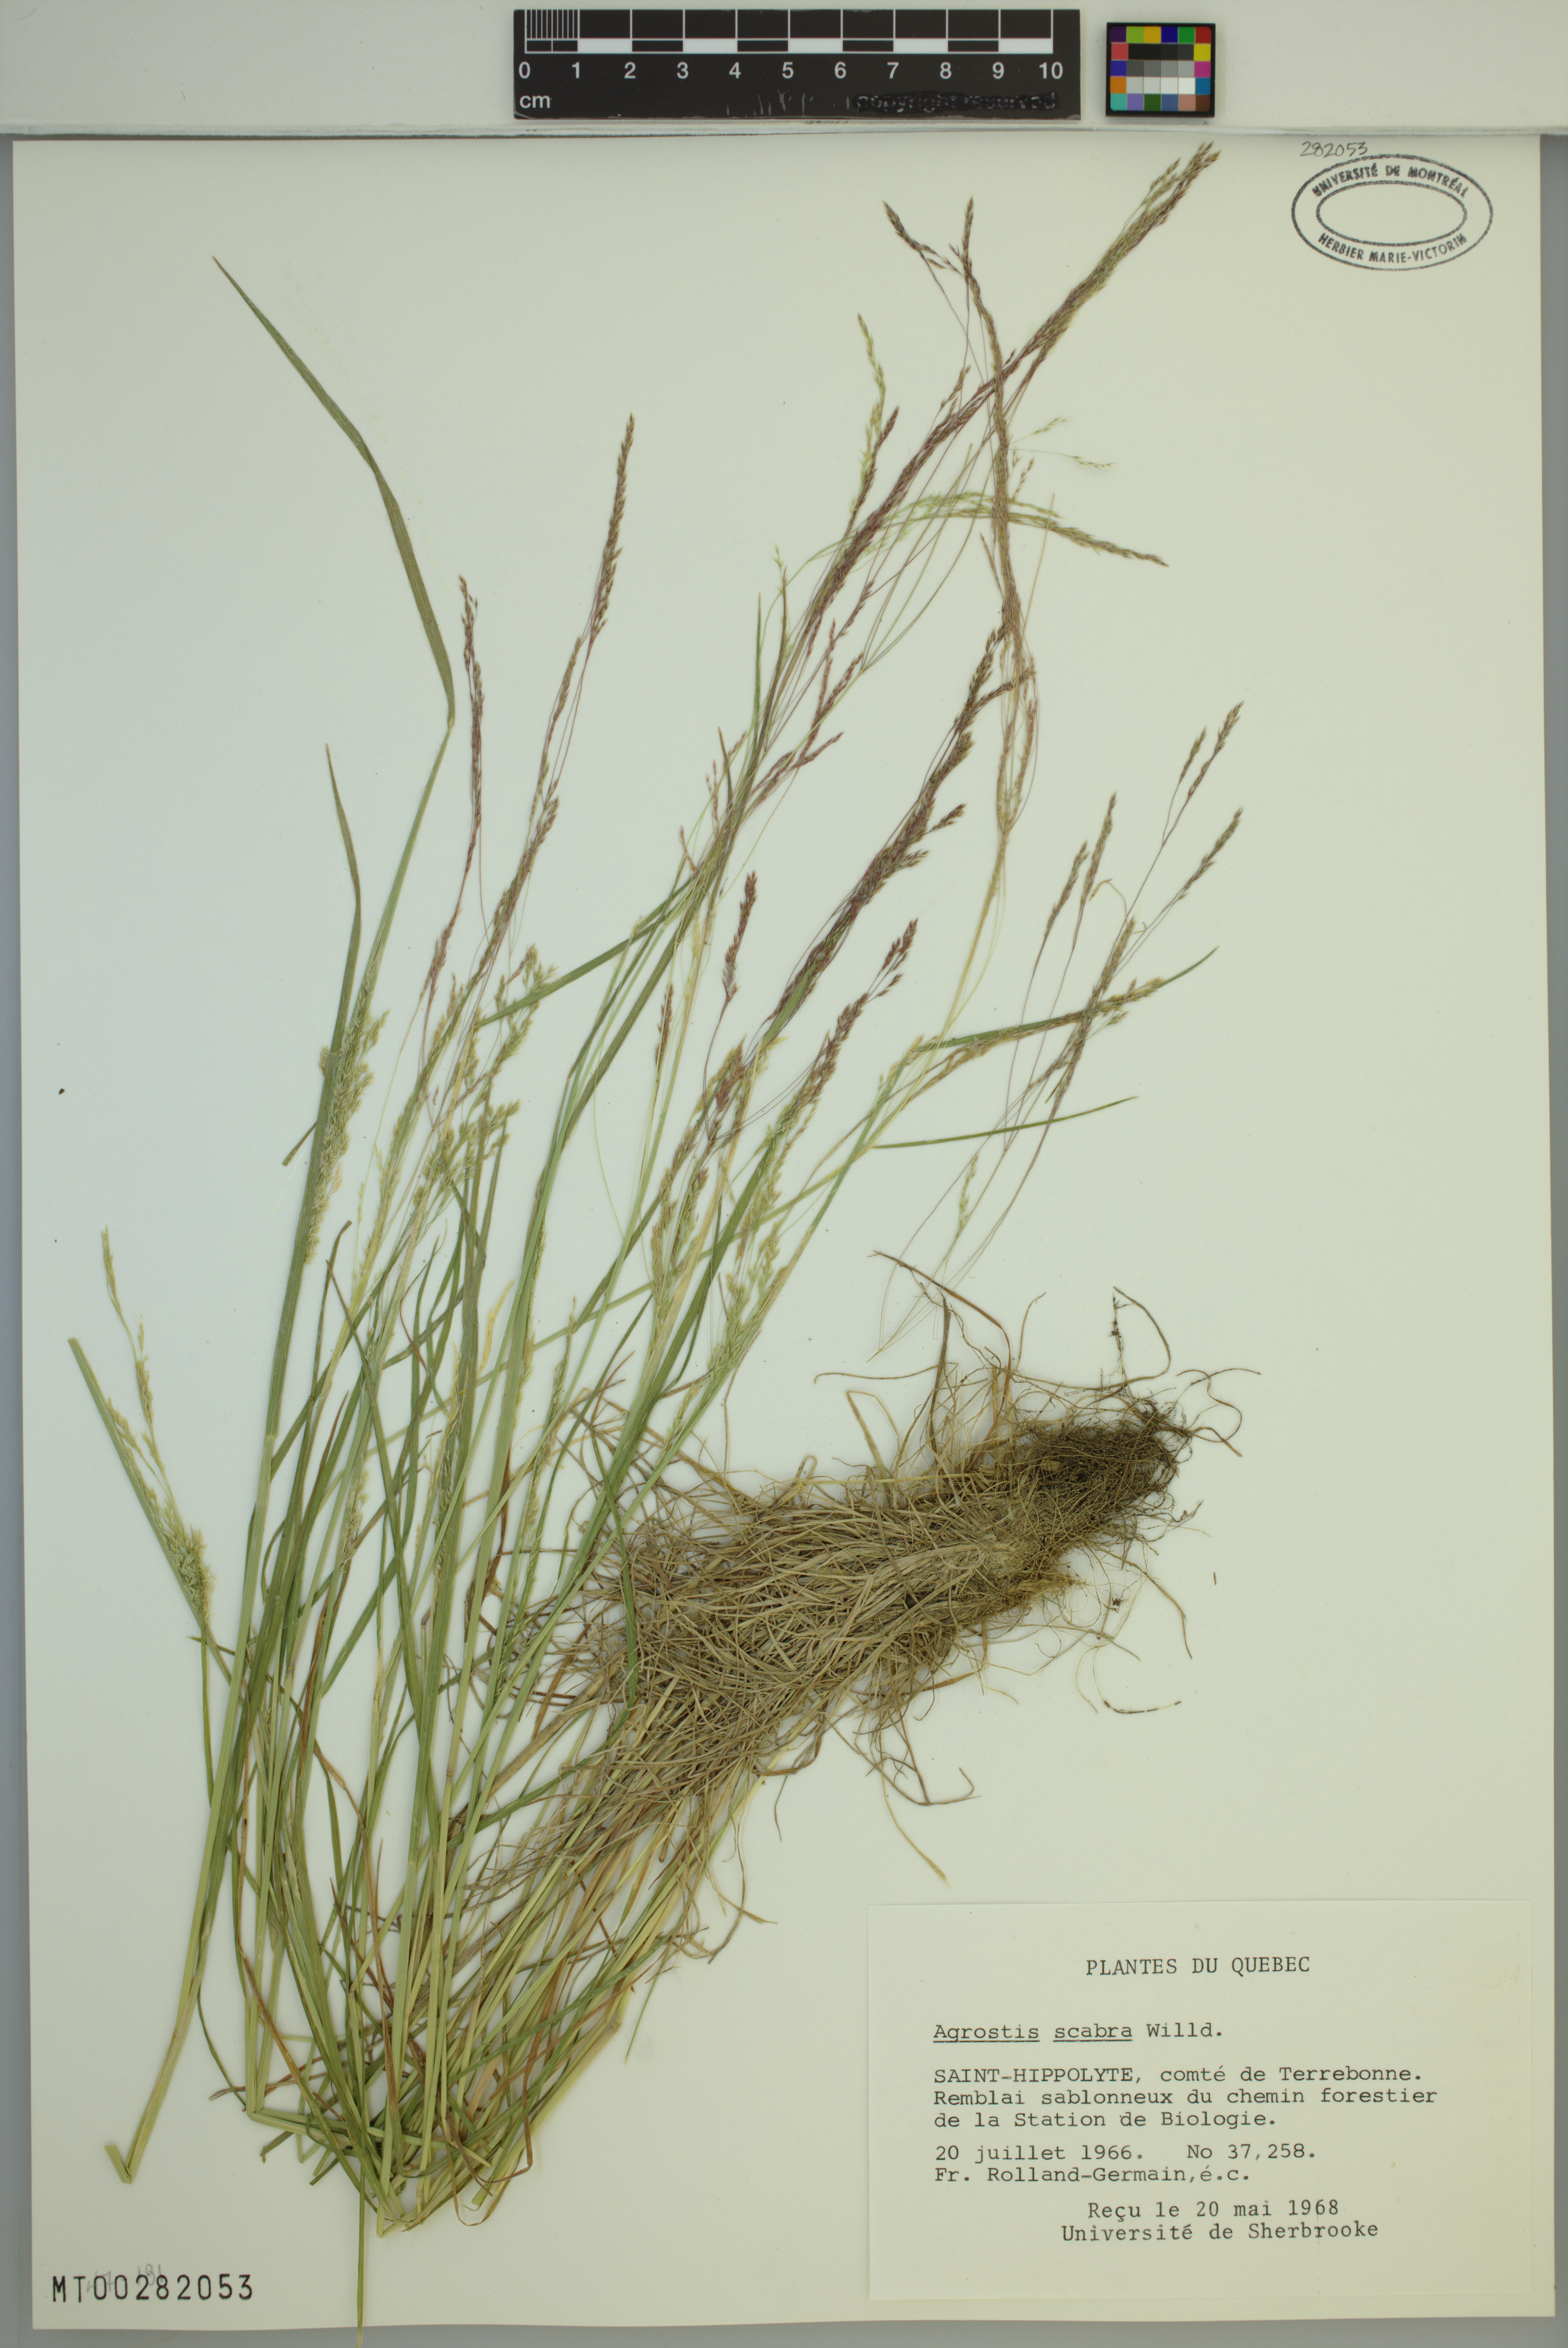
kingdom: Plantae
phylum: Tracheophyta
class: Liliopsida
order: Poales
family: Poaceae
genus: Agrostis
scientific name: Agrostis scabra
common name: Rough bent
